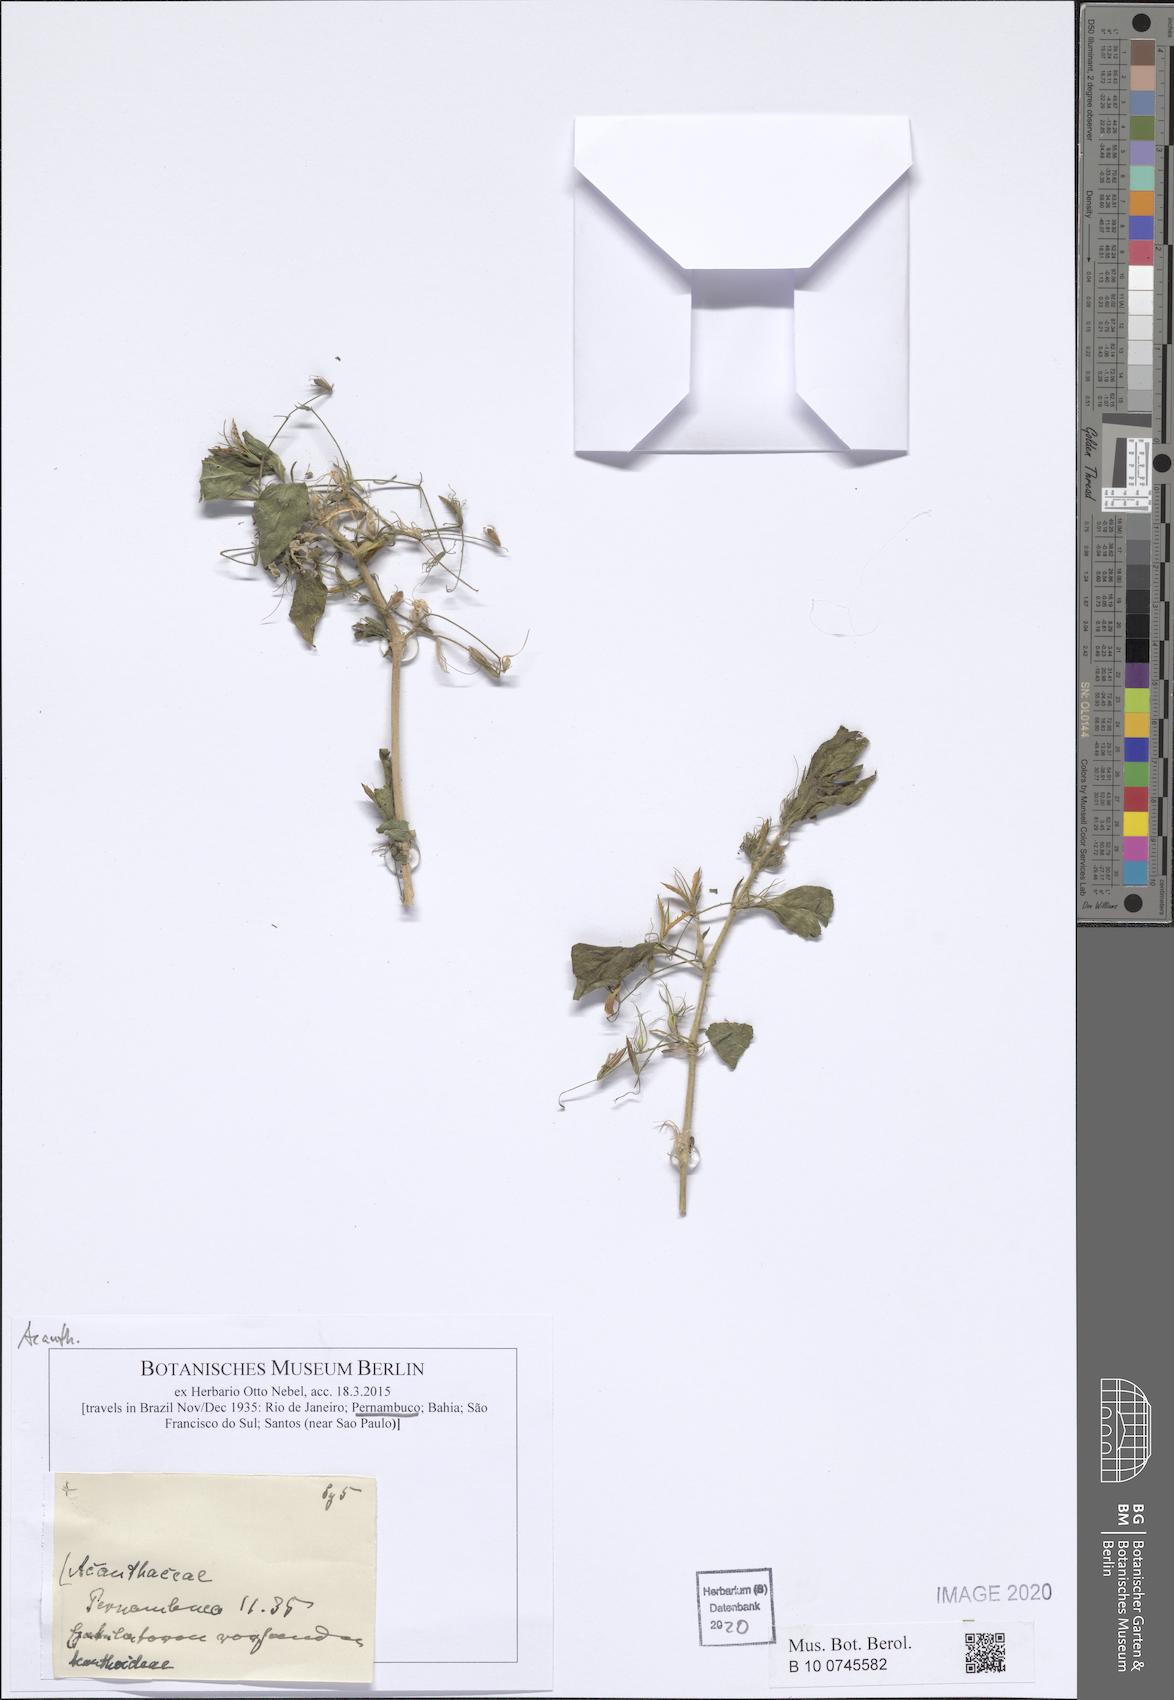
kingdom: Plantae
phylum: Tracheophyta
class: Magnoliopsida
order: Lamiales
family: Acanthaceae
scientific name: Acanthaceae
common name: Acanthaceae
